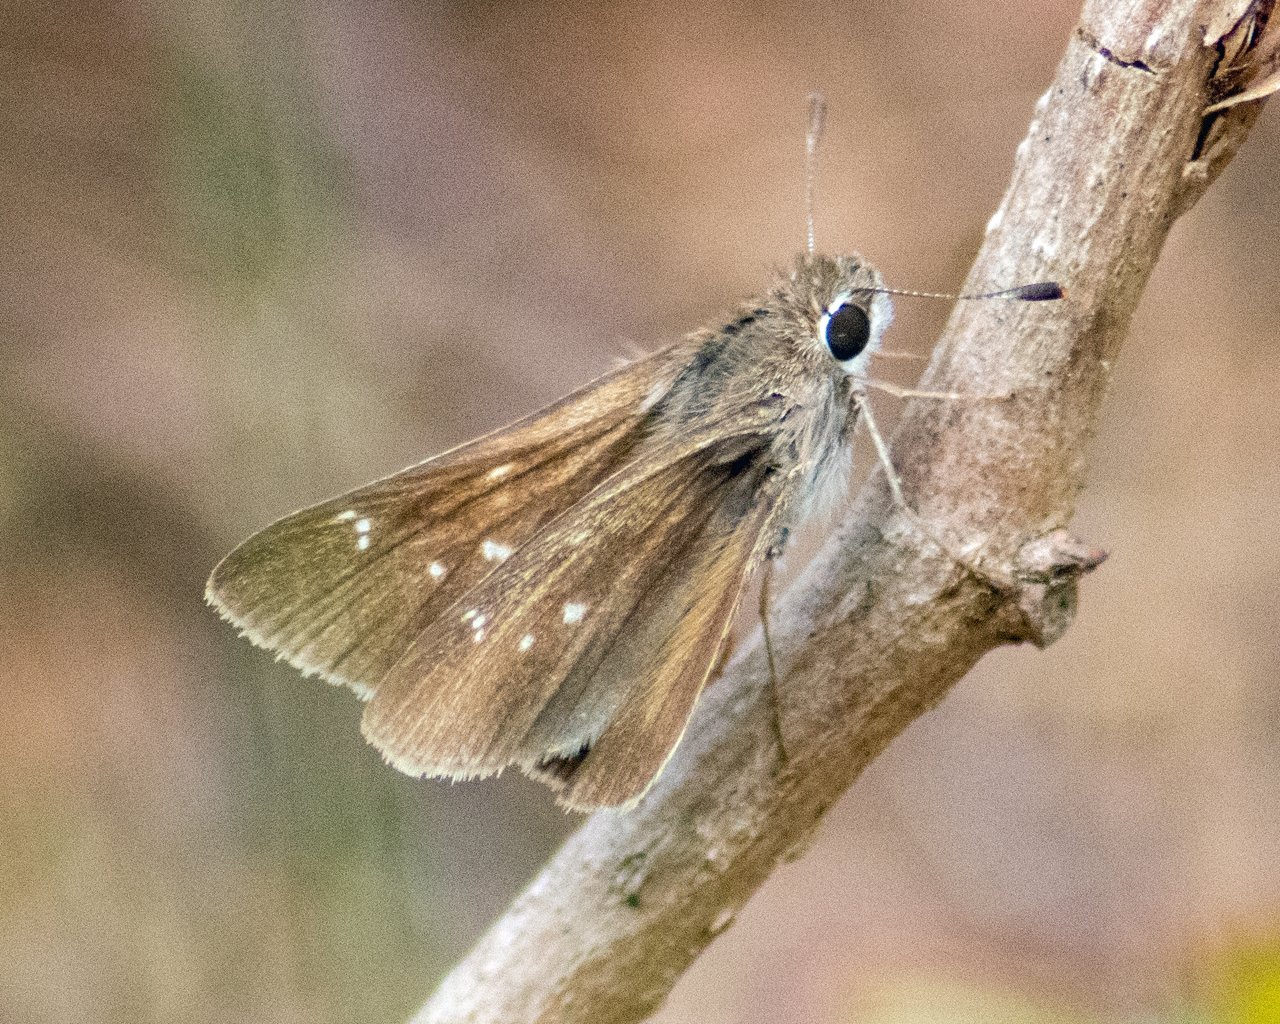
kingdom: Animalia
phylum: Arthropoda
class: Insecta
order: Lepidoptera
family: Hesperiidae
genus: Lerodea
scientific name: Lerodea eufala
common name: Eufala Skipper
